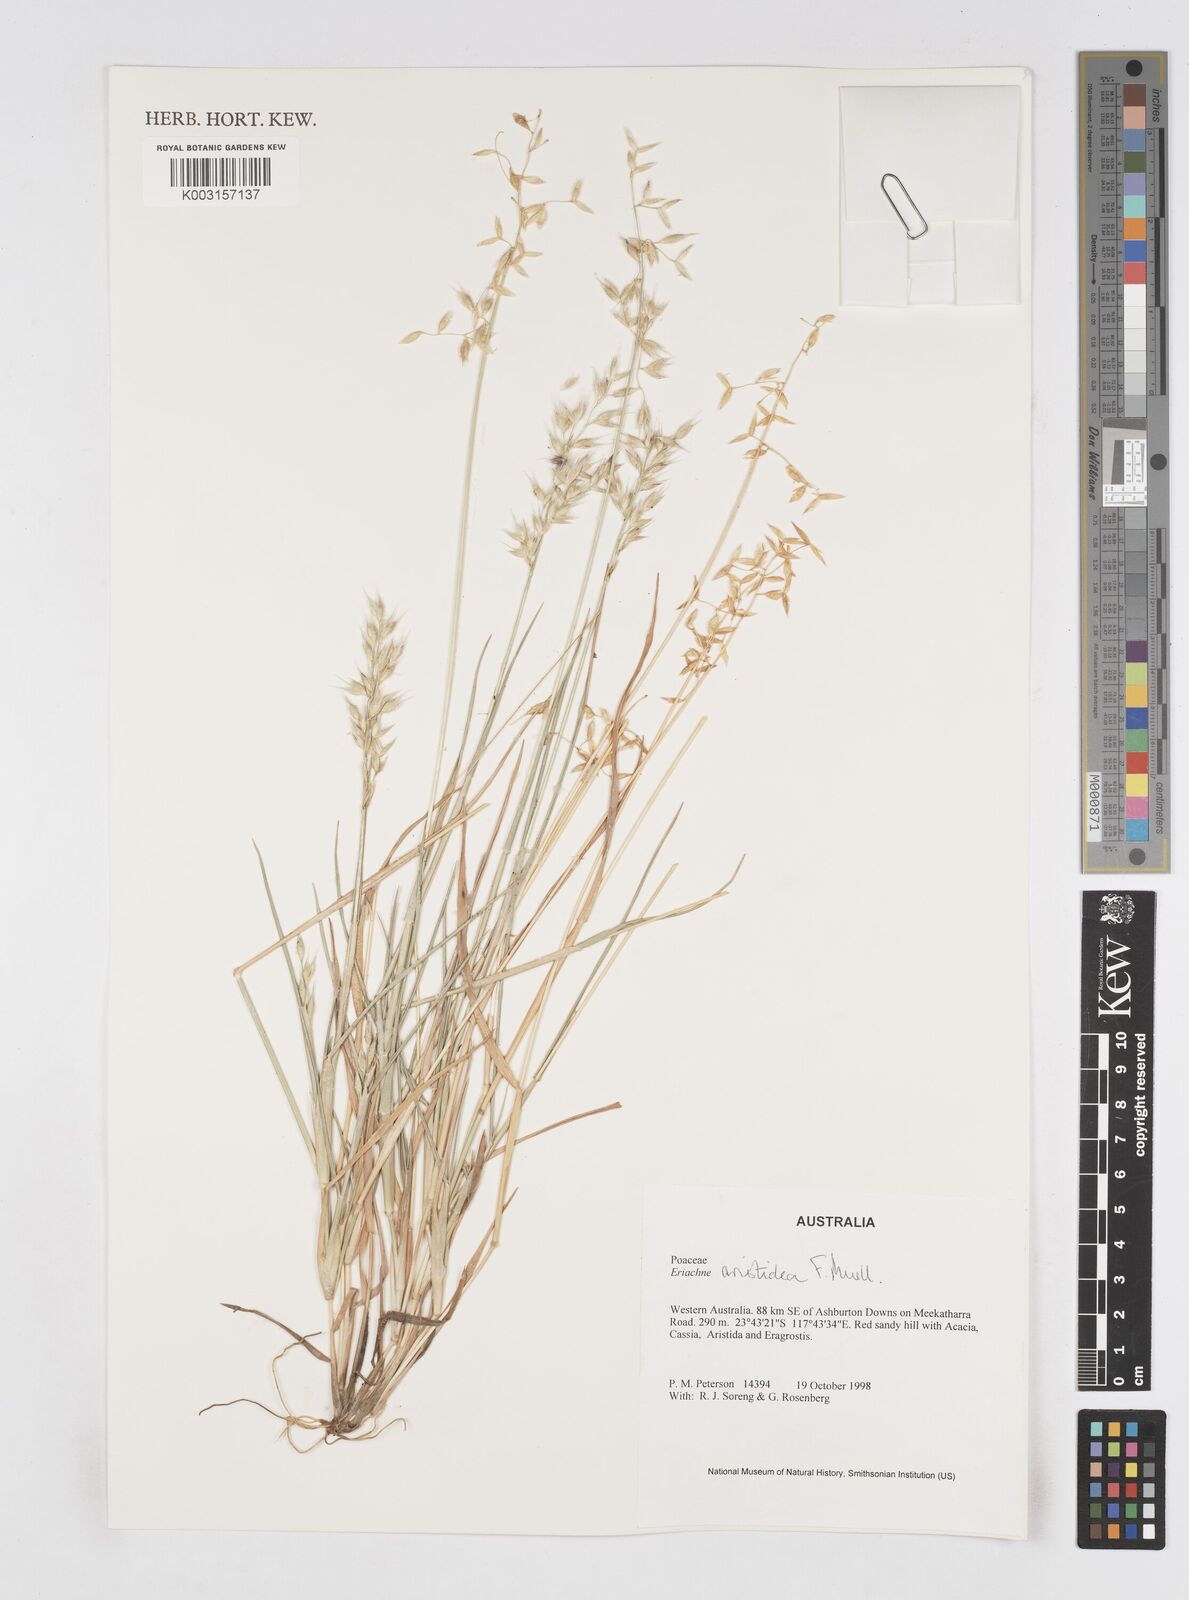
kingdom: Plantae
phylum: Tracheophyta
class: Liliopsida
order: Poales
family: Poaceae
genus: Eriachne
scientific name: Eriachne aristidea
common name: Three-awn wanderrie grass
